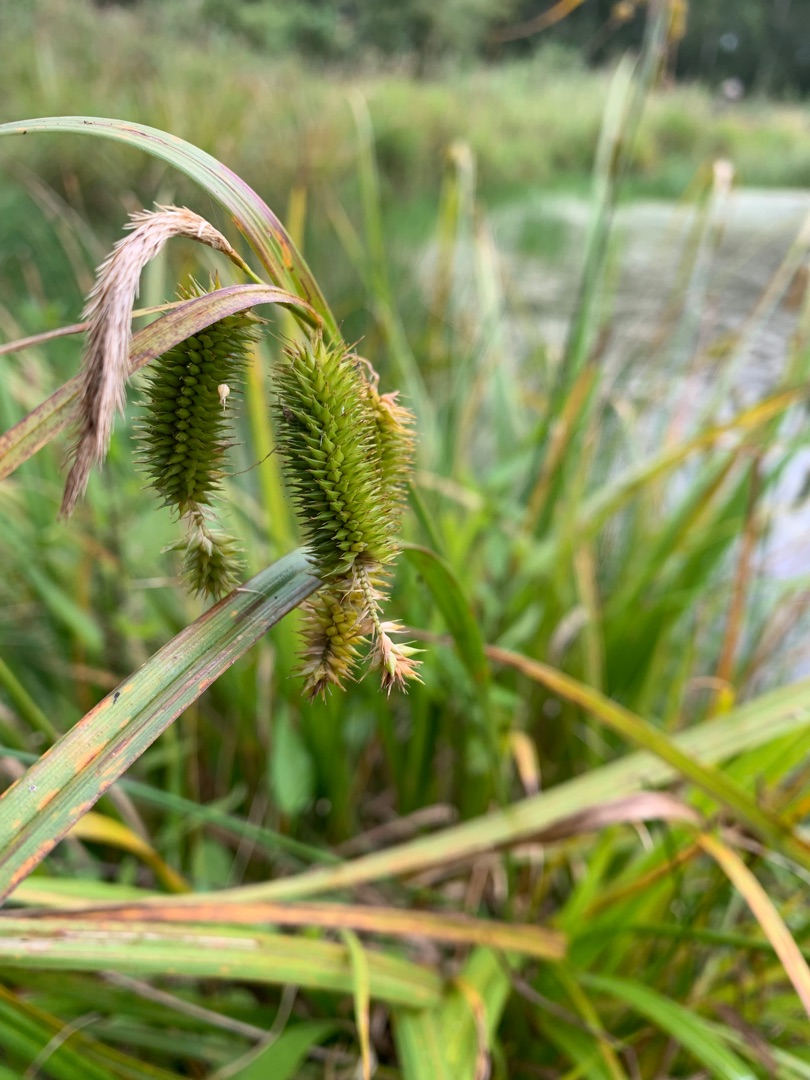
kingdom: Plantae
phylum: Tracheophyta
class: Liliopsida
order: Poales
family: Cyperaceae
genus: Carex
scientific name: Carex pseudocyperus
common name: Knippe-star
